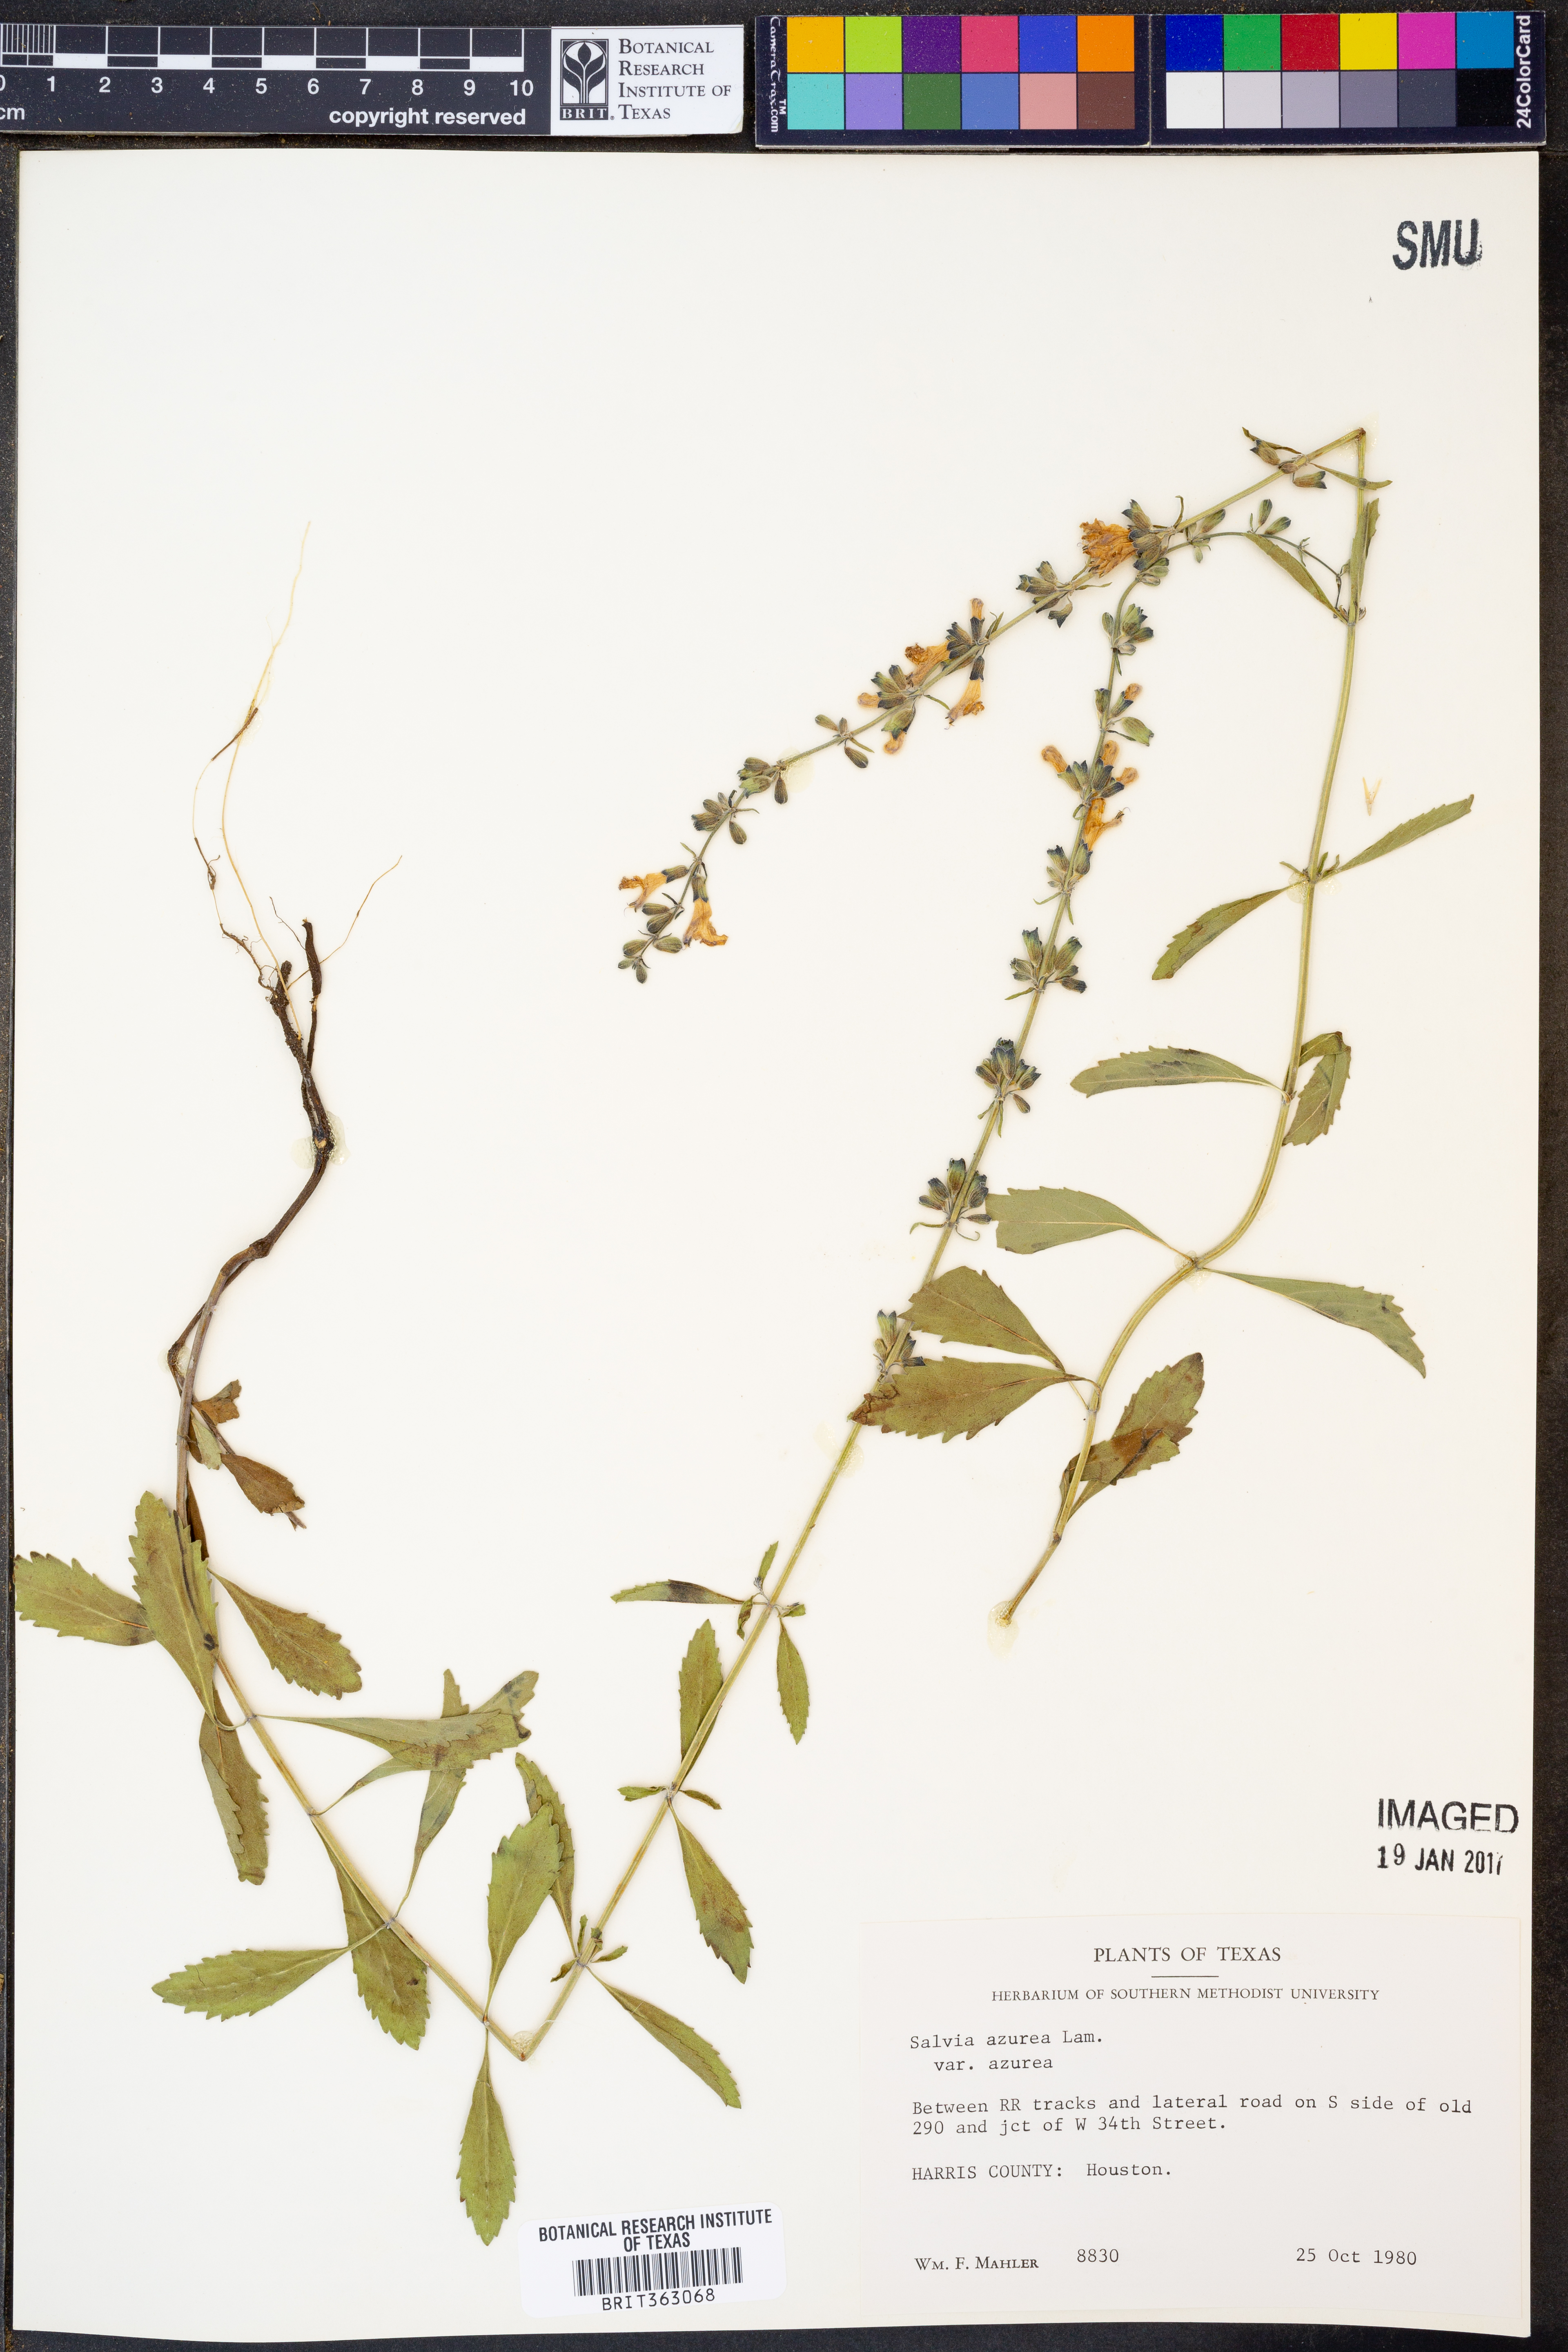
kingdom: Plantae
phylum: Tracheophyta
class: Magnoliopsida
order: Lamiales
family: Lamiaceae
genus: Salvia
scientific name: Salvia azurea
